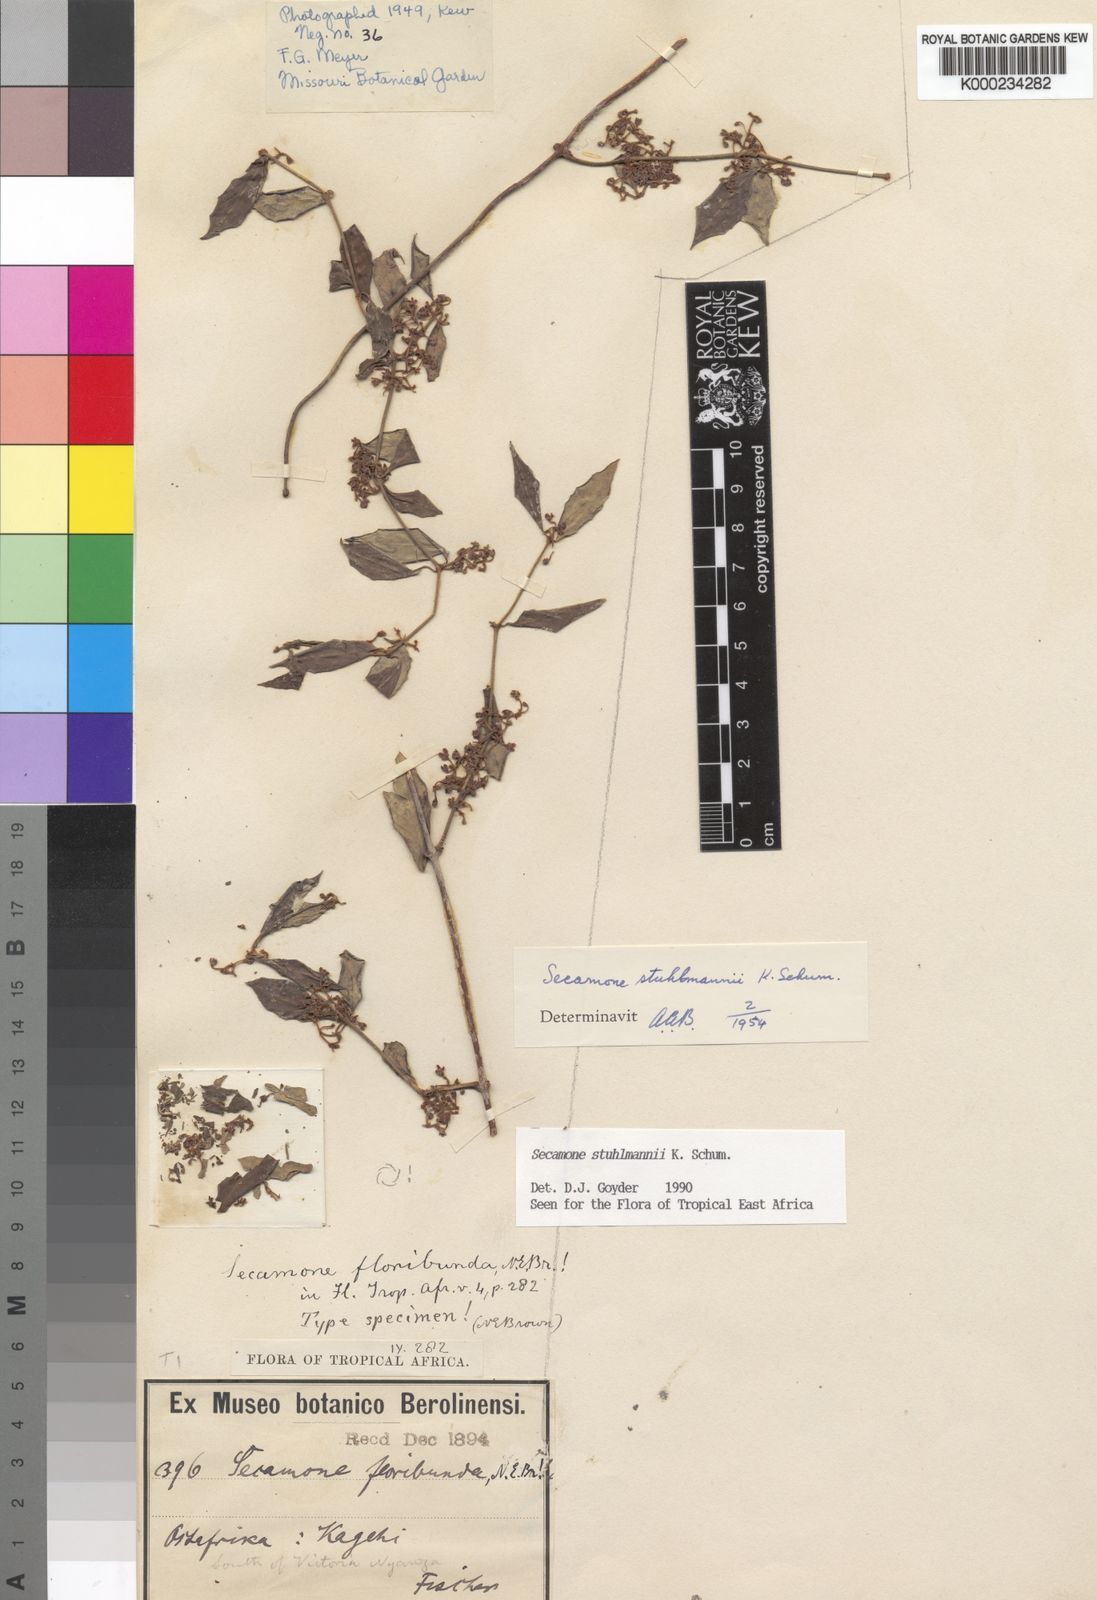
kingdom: Plantae
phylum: Tracheophyta
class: Magnoliopsida
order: Gentianales
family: Apocynaceae
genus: Secamone
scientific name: Secamone stuhlmannii
